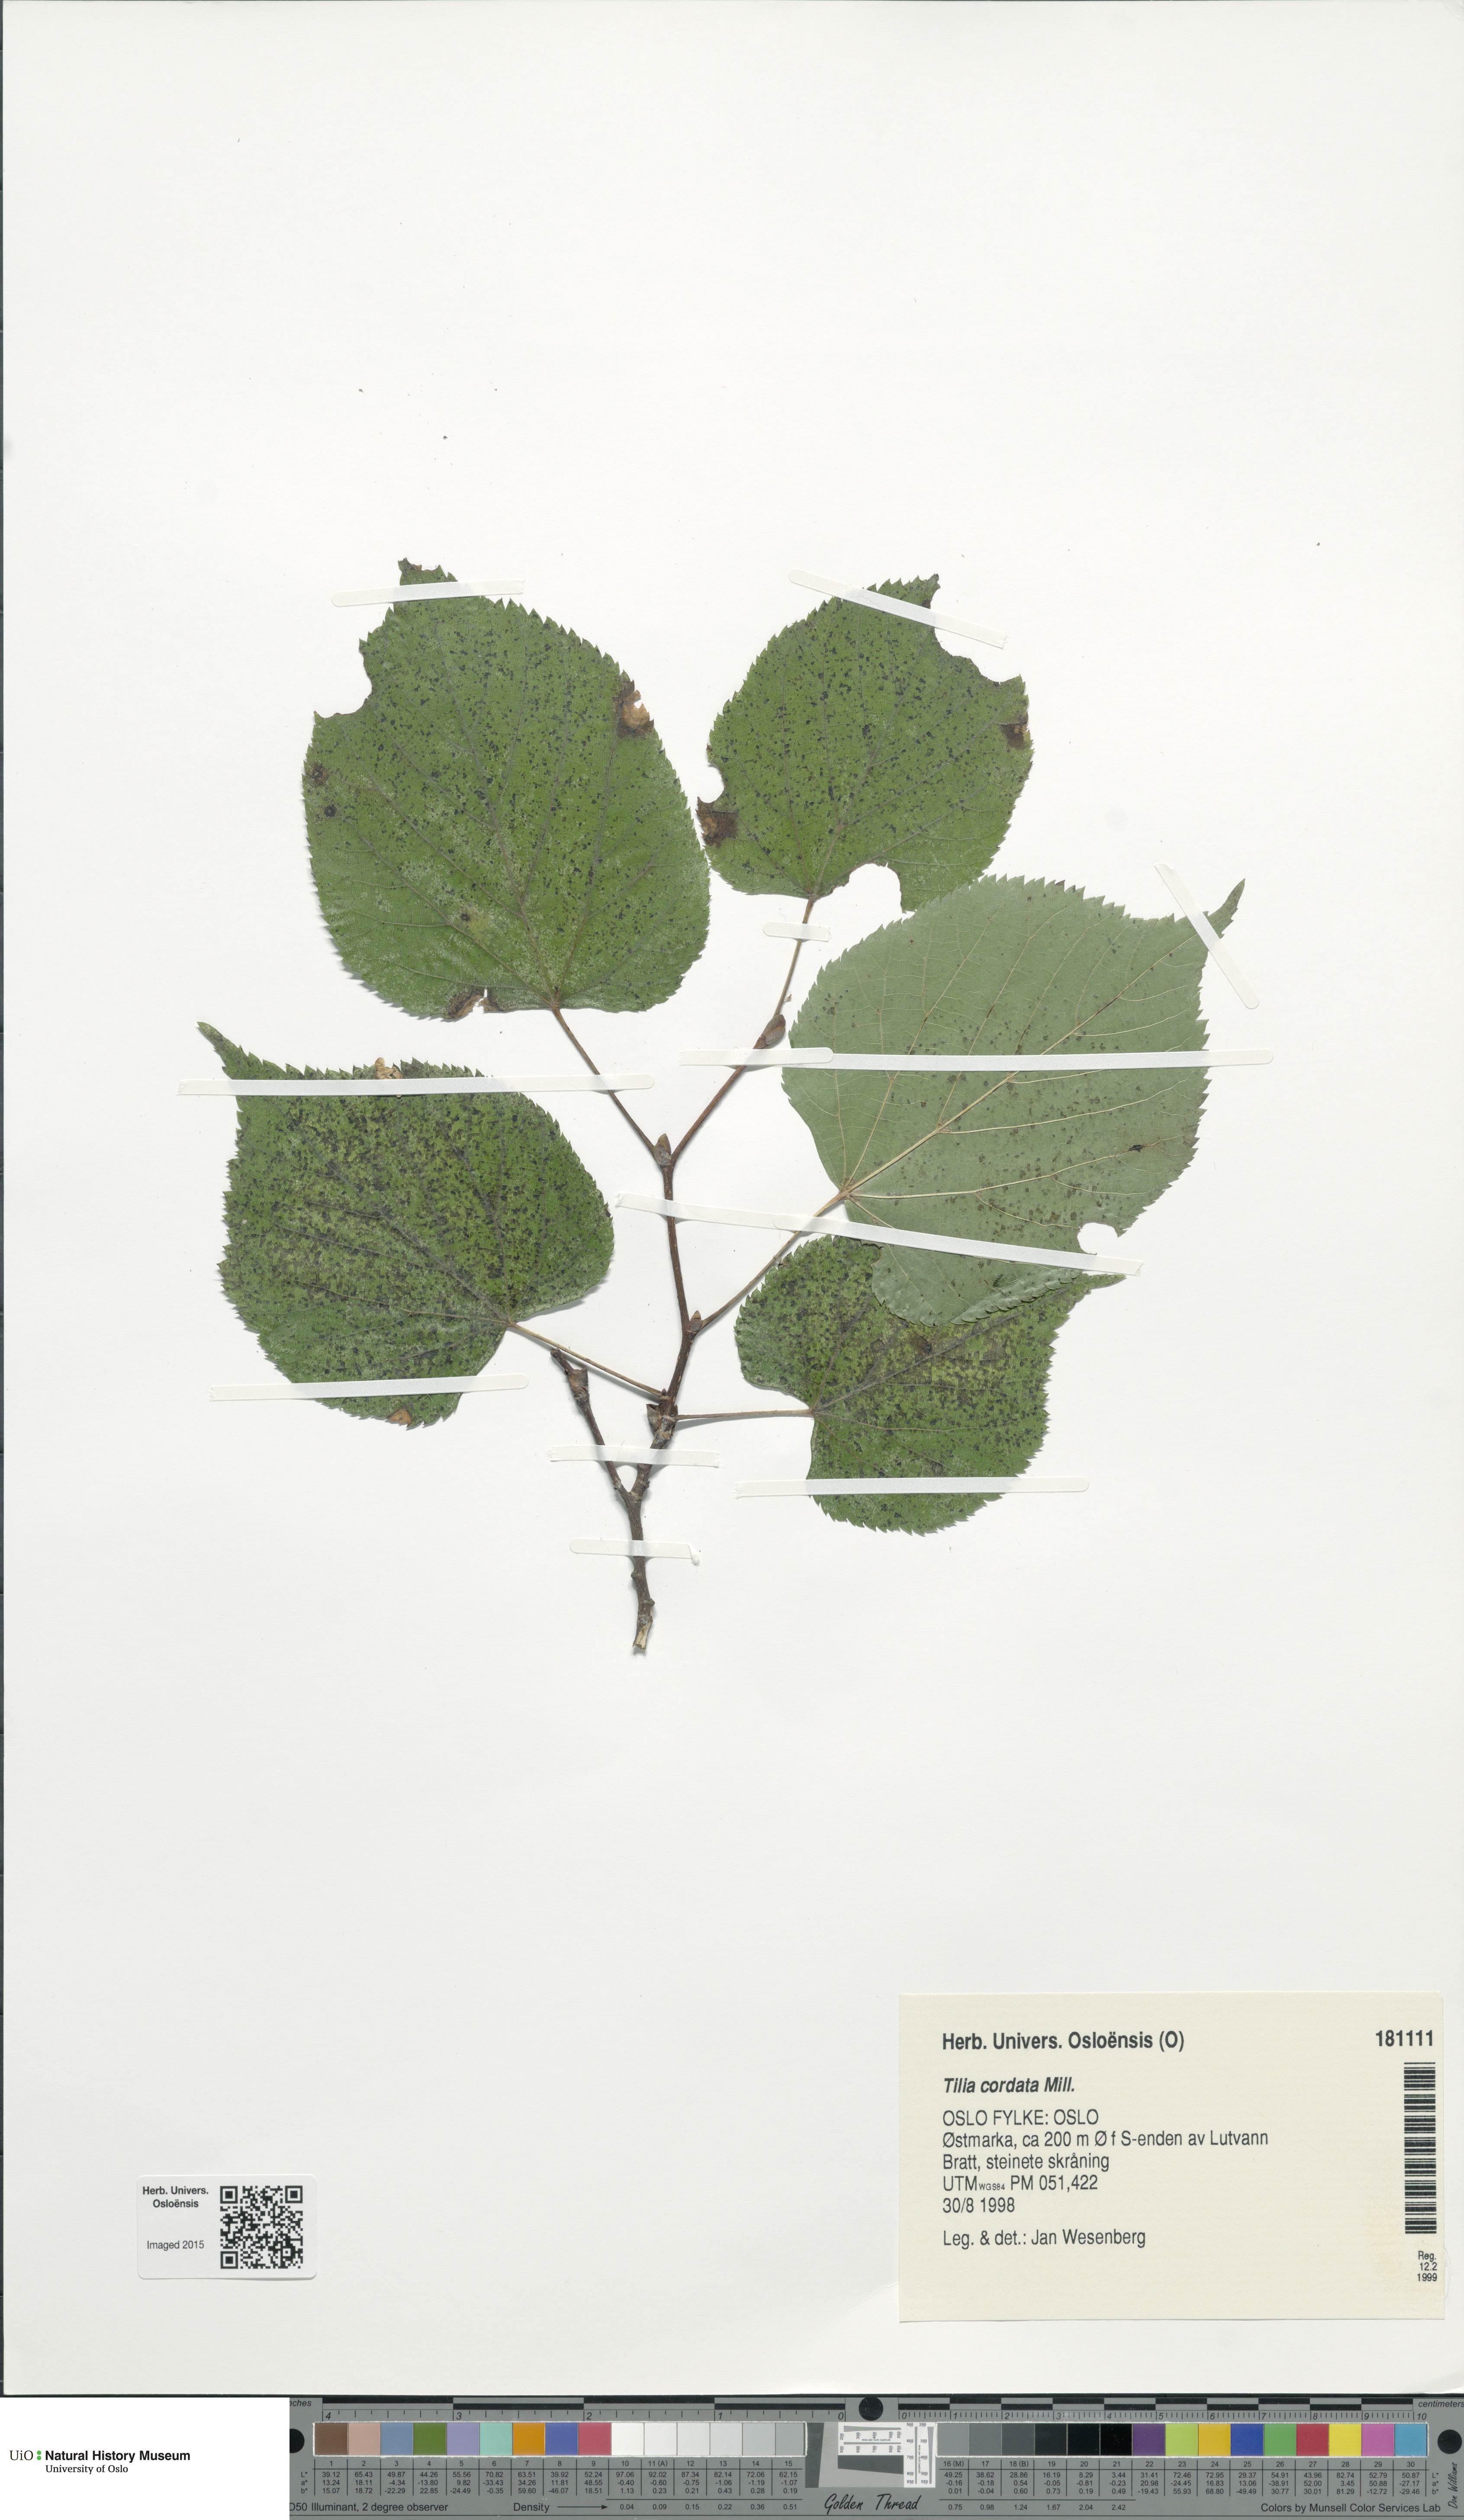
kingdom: Plantae
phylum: Tracheophyta
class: Magnoliopsida
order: Malvales
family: Malvaceae
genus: Tilia
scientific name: Tilia cordata
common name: Small-leaved lime
